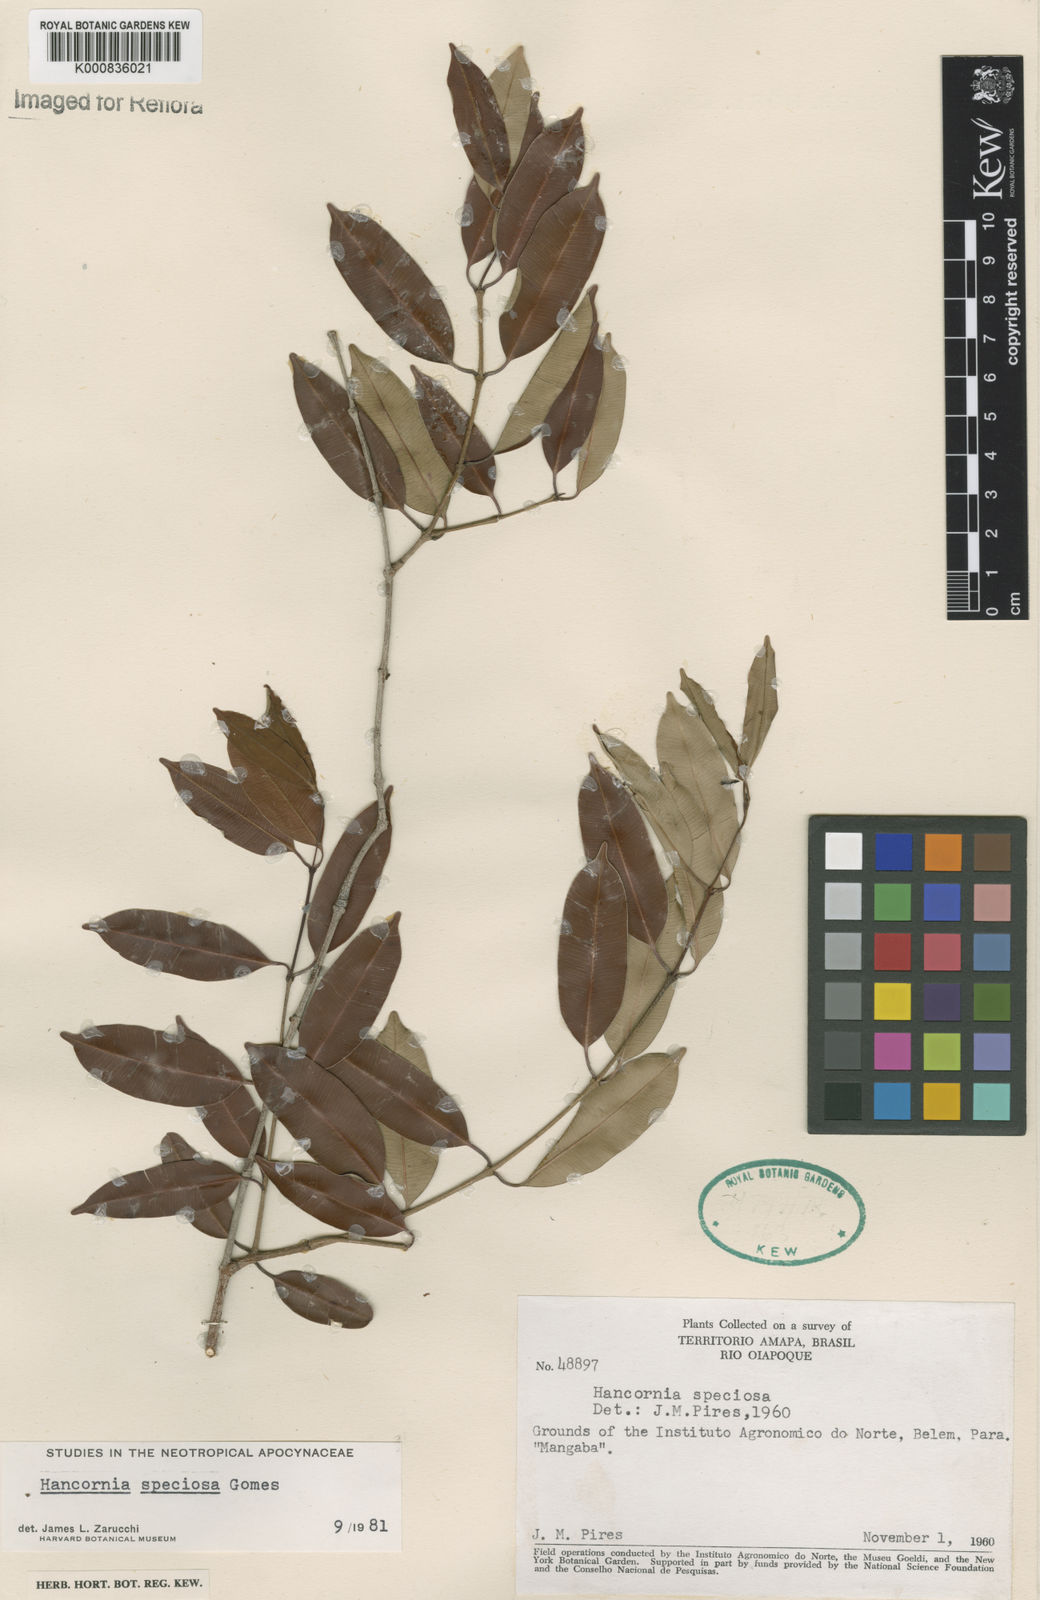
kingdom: Plantae
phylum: Tracheophyta
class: Magnoliopsida
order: Gentianales
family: Apocynaceae
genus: Hancornia
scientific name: Hancornia speciosa
